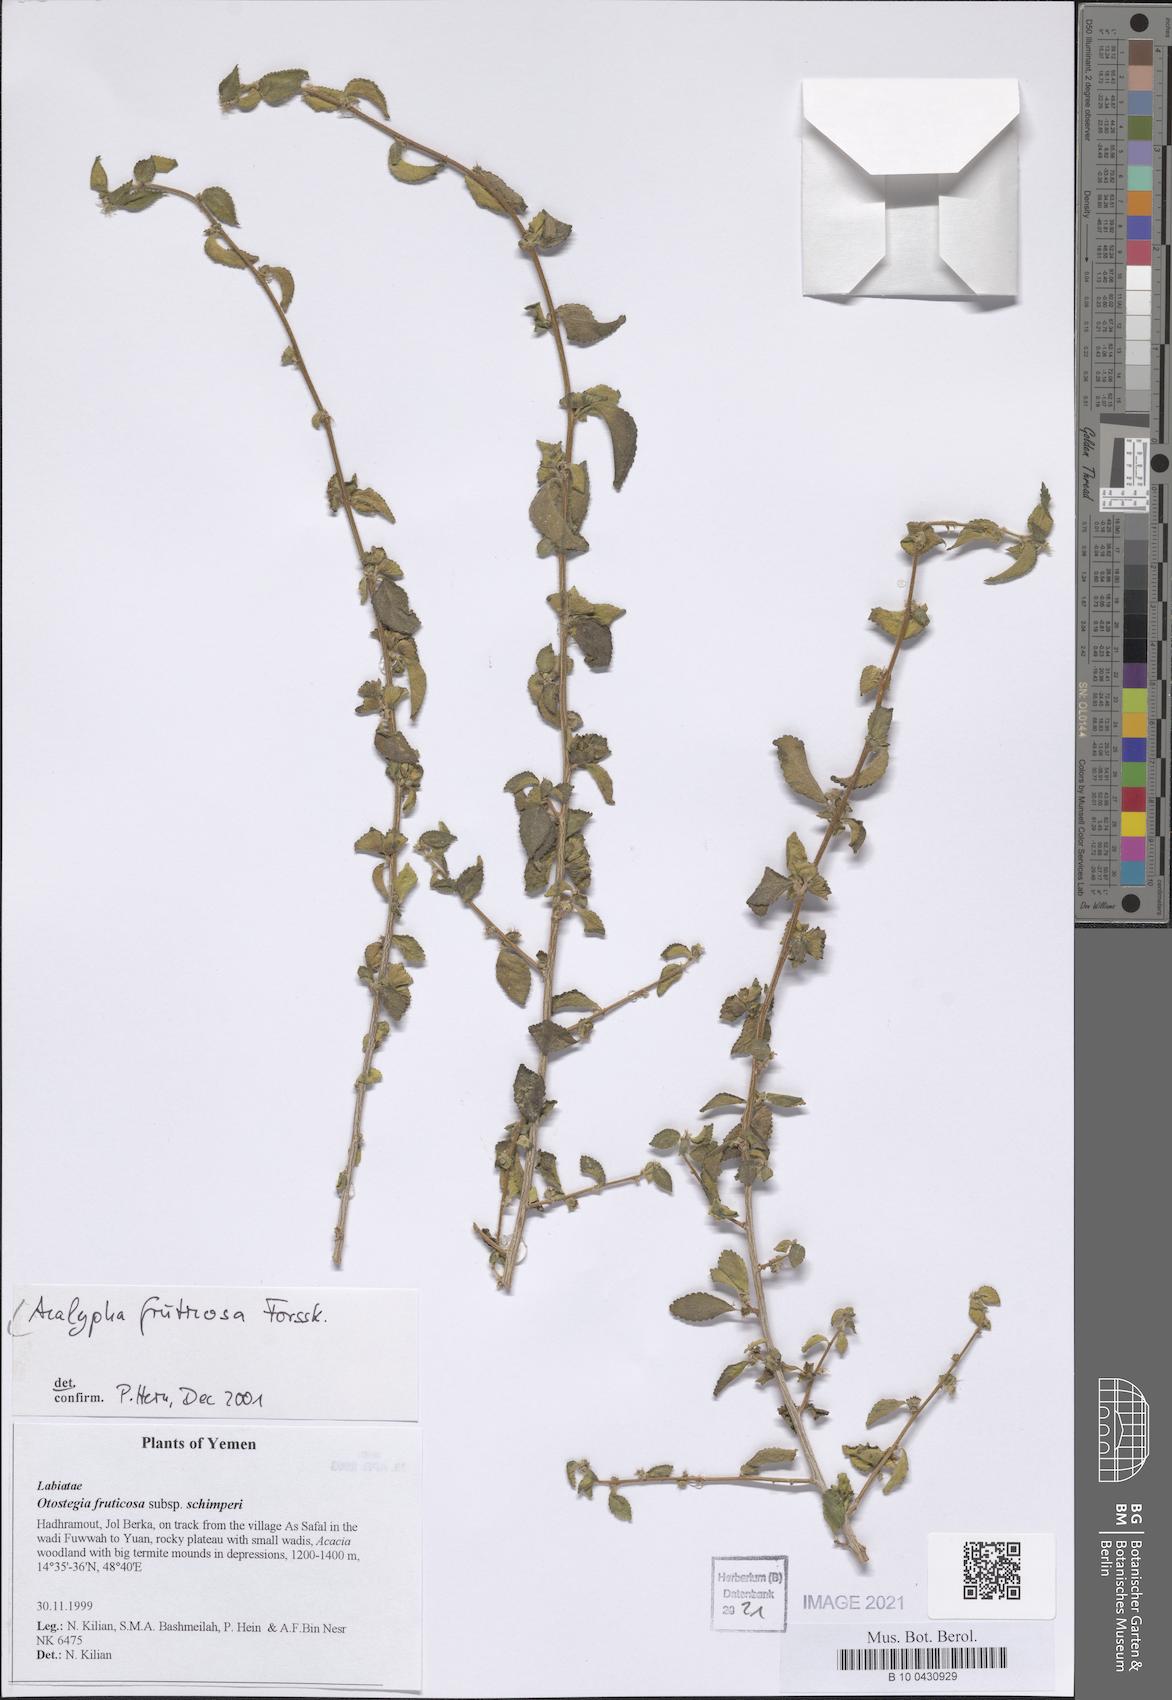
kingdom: Plantae
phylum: Tracheophyta
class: Magnoliopsida
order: Malpighiales
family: Euphorbiaceae
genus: Acalypha
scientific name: Acalypha fruticosa
